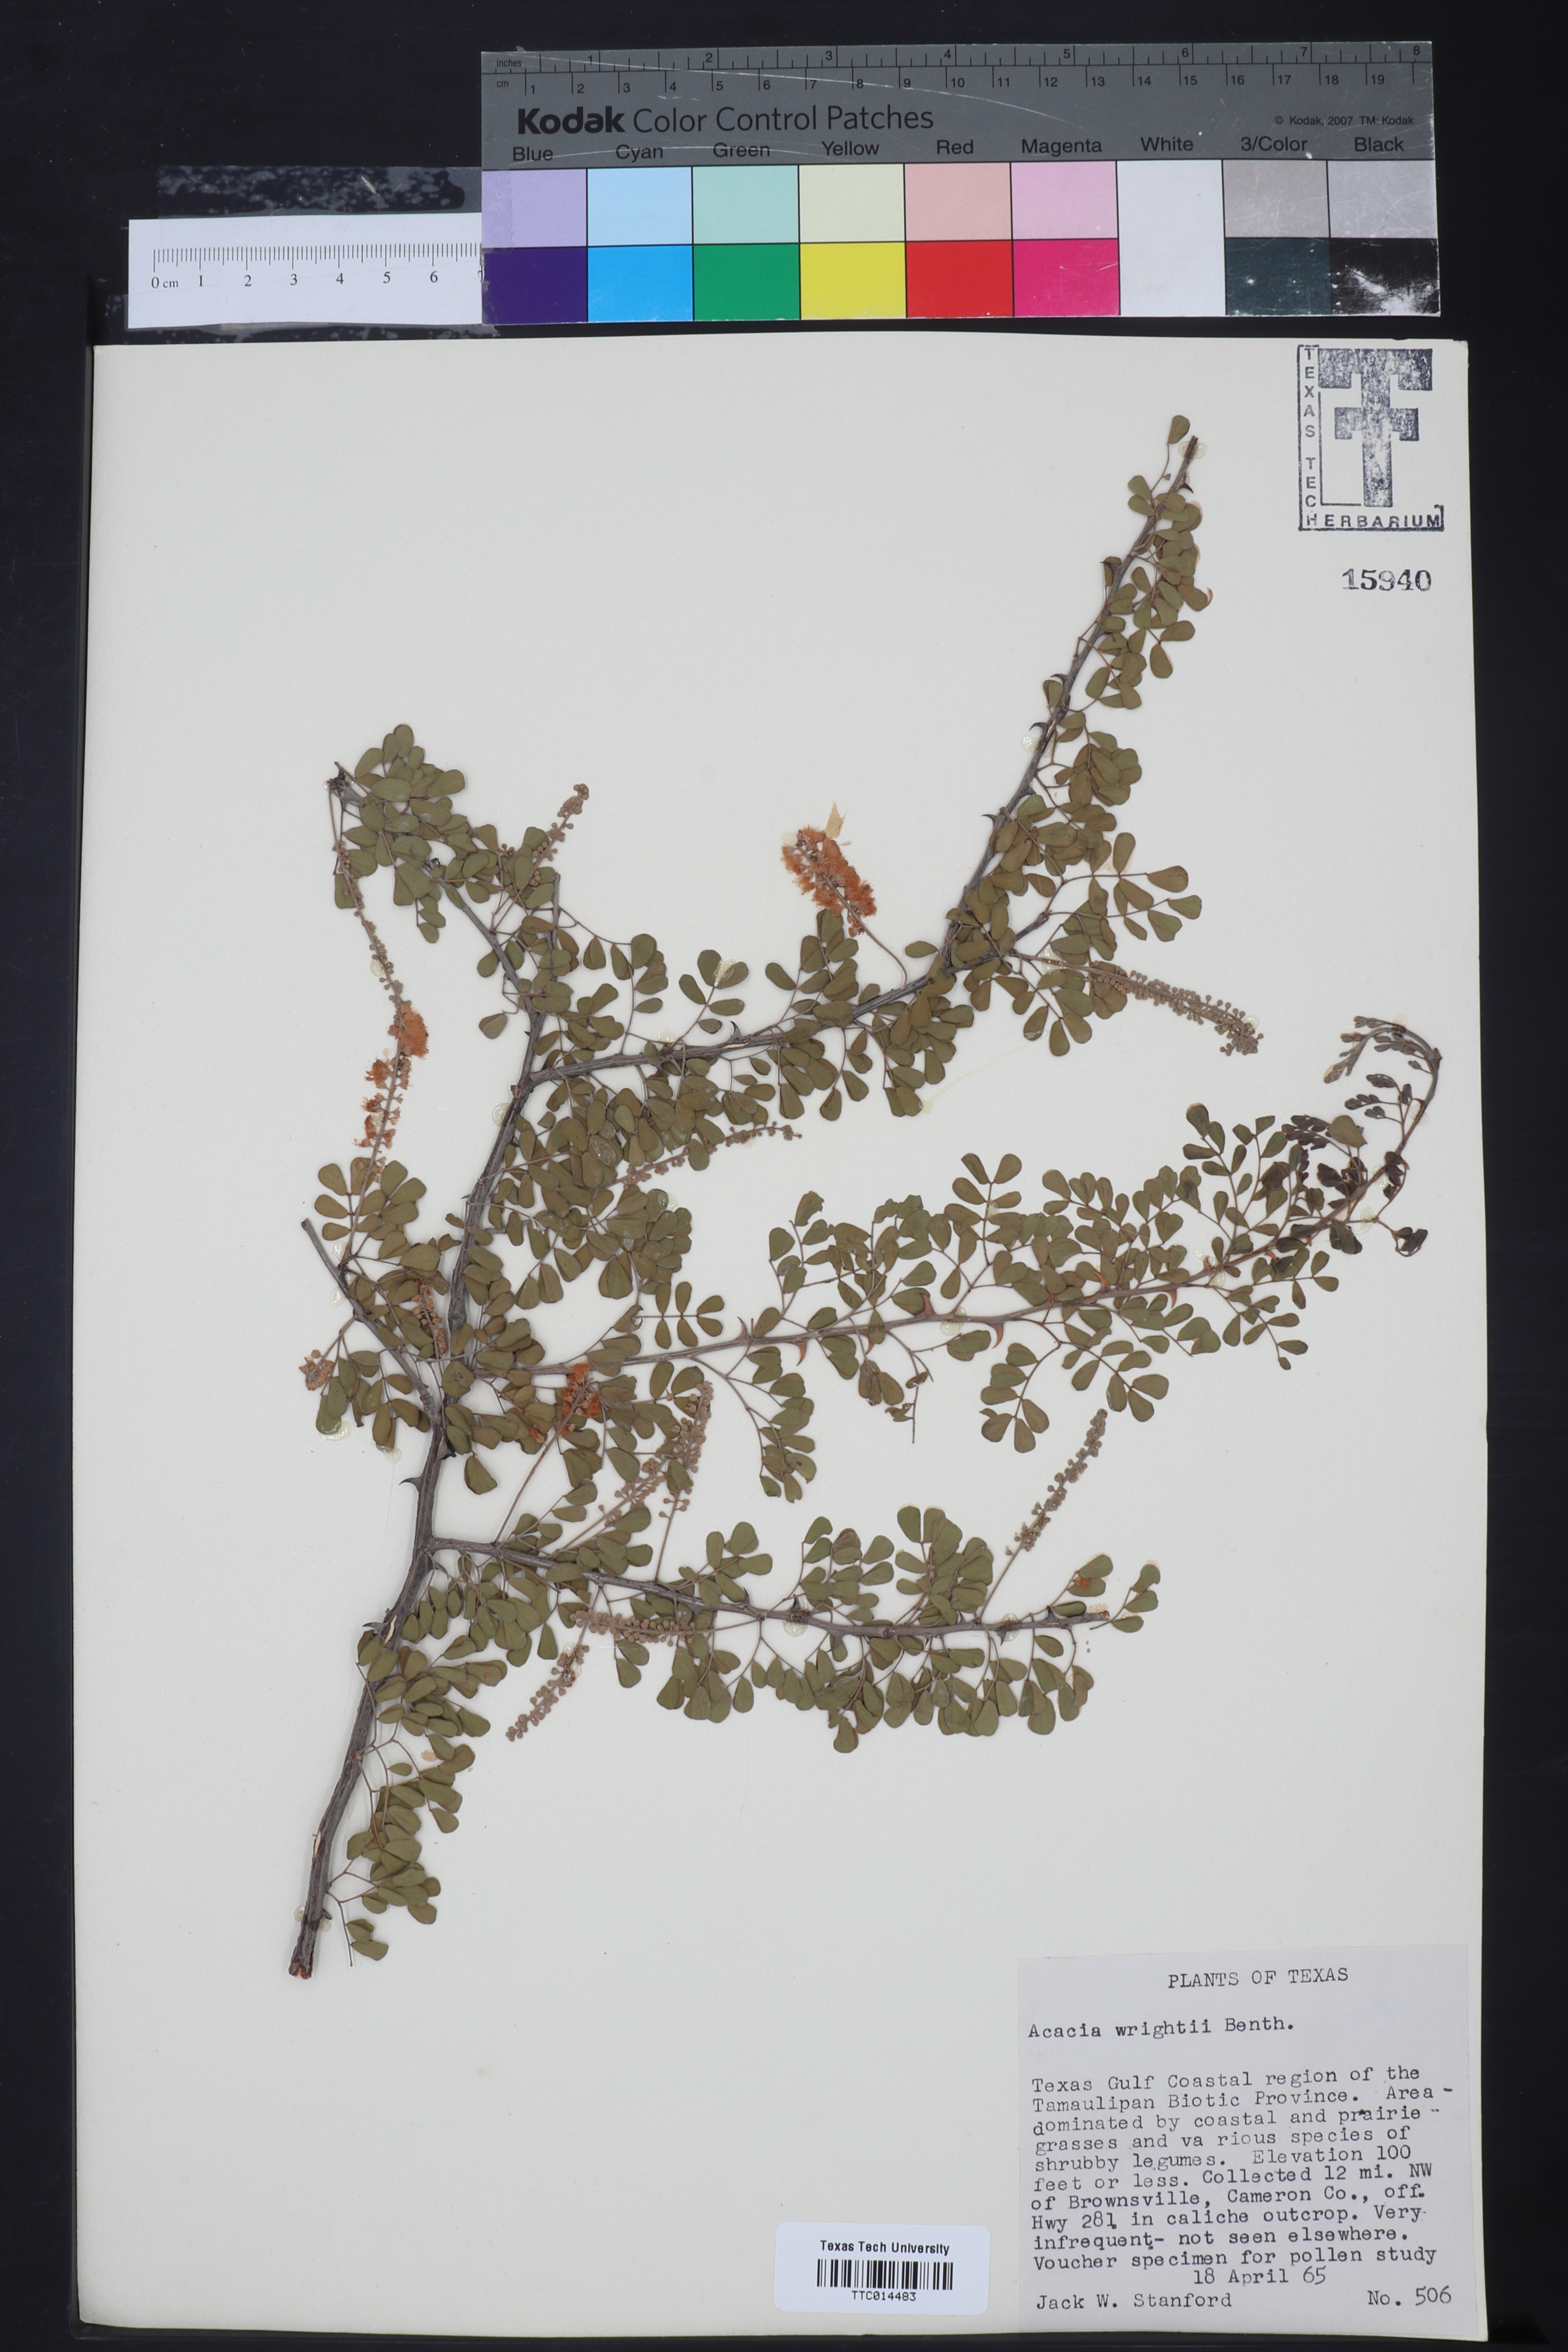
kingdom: Plantae
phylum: Tracheophyta
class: Magnoliopsida
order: Fabales
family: Fabaceae
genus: Senegalia
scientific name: Senegalia wrightii
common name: Texas cat's-claw
